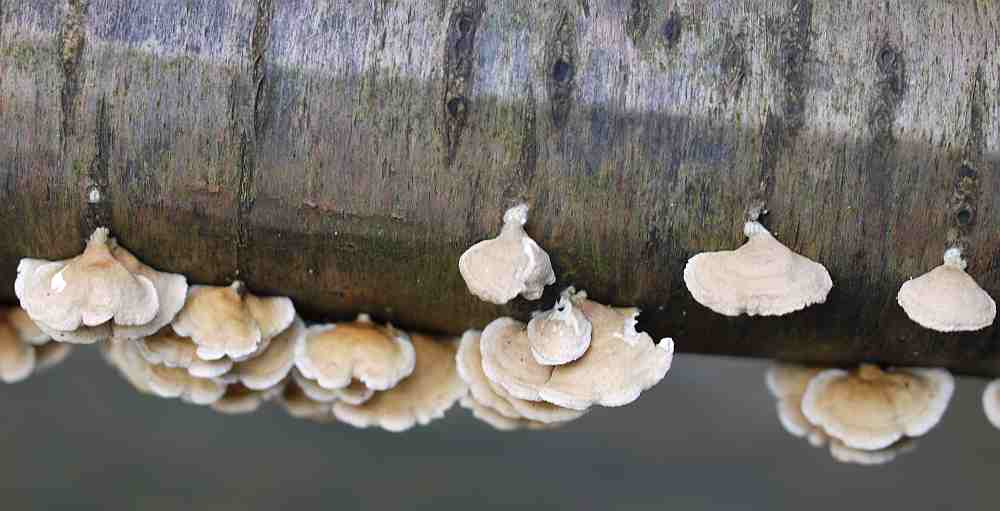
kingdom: Fungi
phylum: Basidiomycota
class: Agaricomycetes
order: Amylocorticiales
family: Amylocorticiaceae
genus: Plicaturopsis
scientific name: Plicaturopsis crispa
